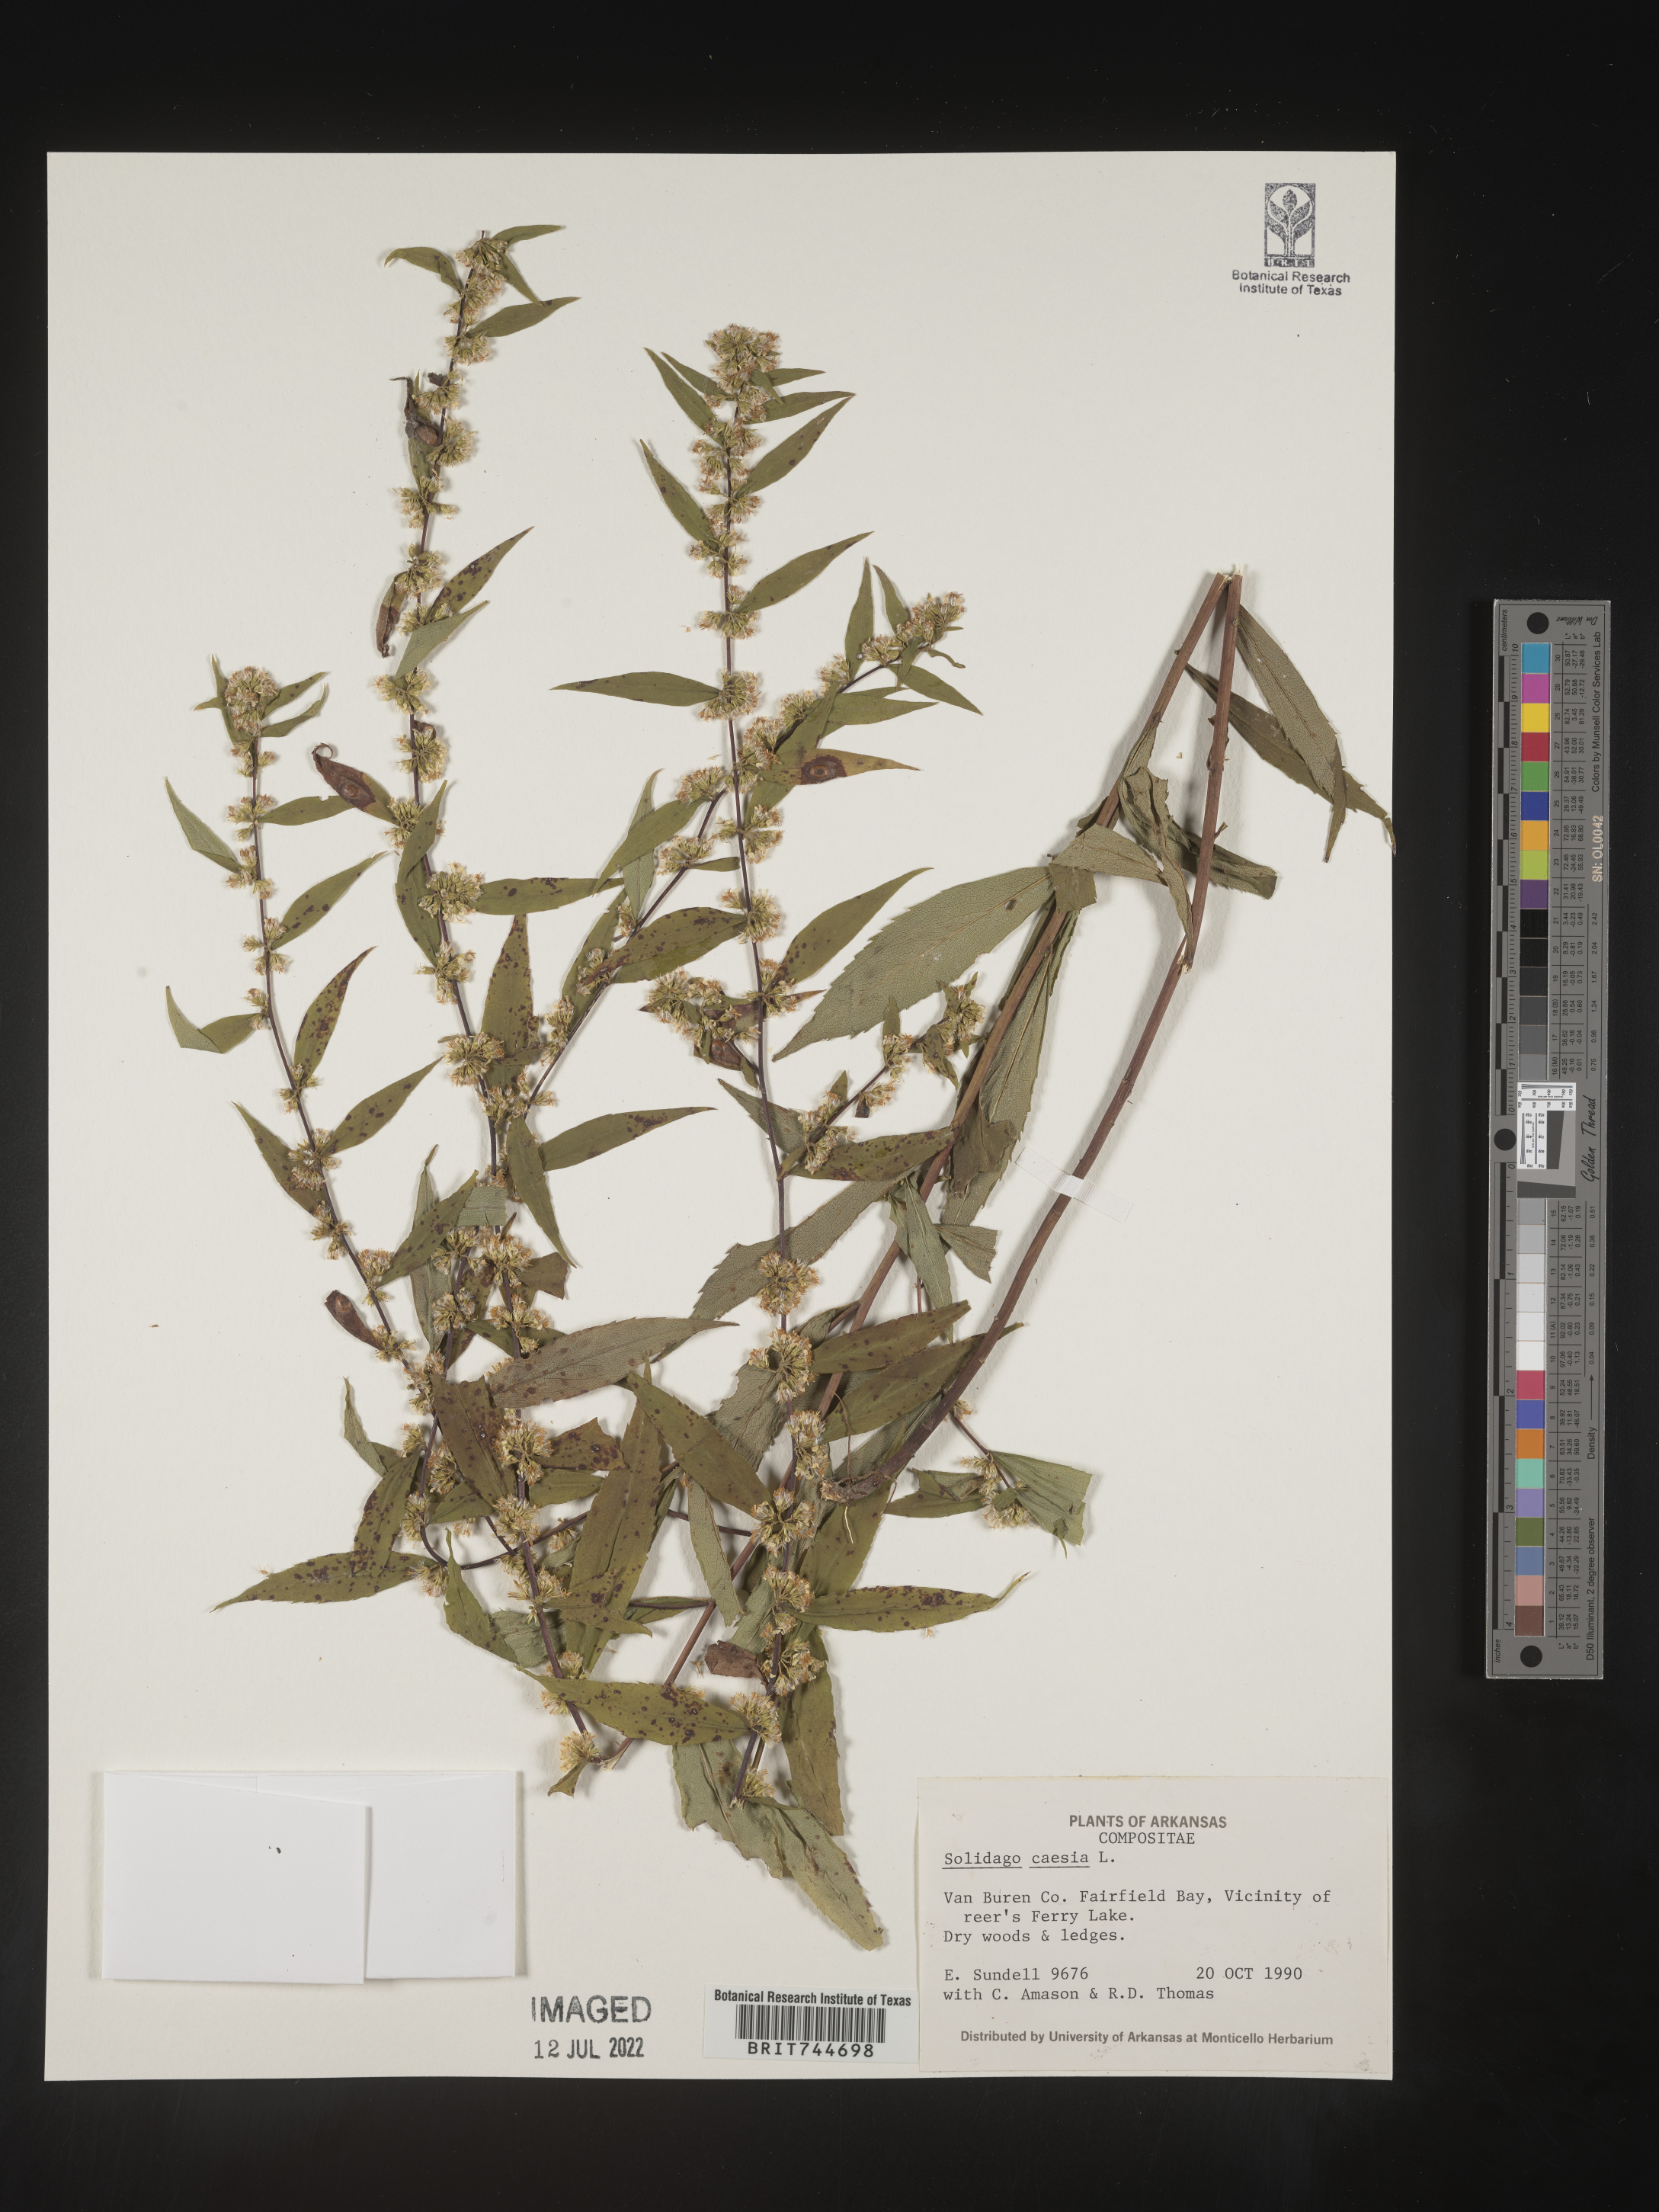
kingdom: Plantae
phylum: Tracheophyta
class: Magnoliopsida
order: Asterales
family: Asteraceae
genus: Solidago
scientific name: Solidago caesia
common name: Woodland goldenrod
